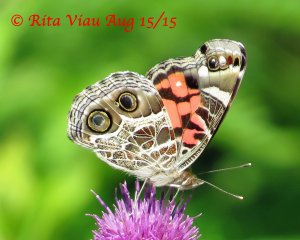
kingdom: Animalia
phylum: Arthropoda
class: Insecta
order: Lepidoptera
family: Nymphalidae
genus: Vanessa
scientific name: Vanessa virginiensis
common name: American Lady
